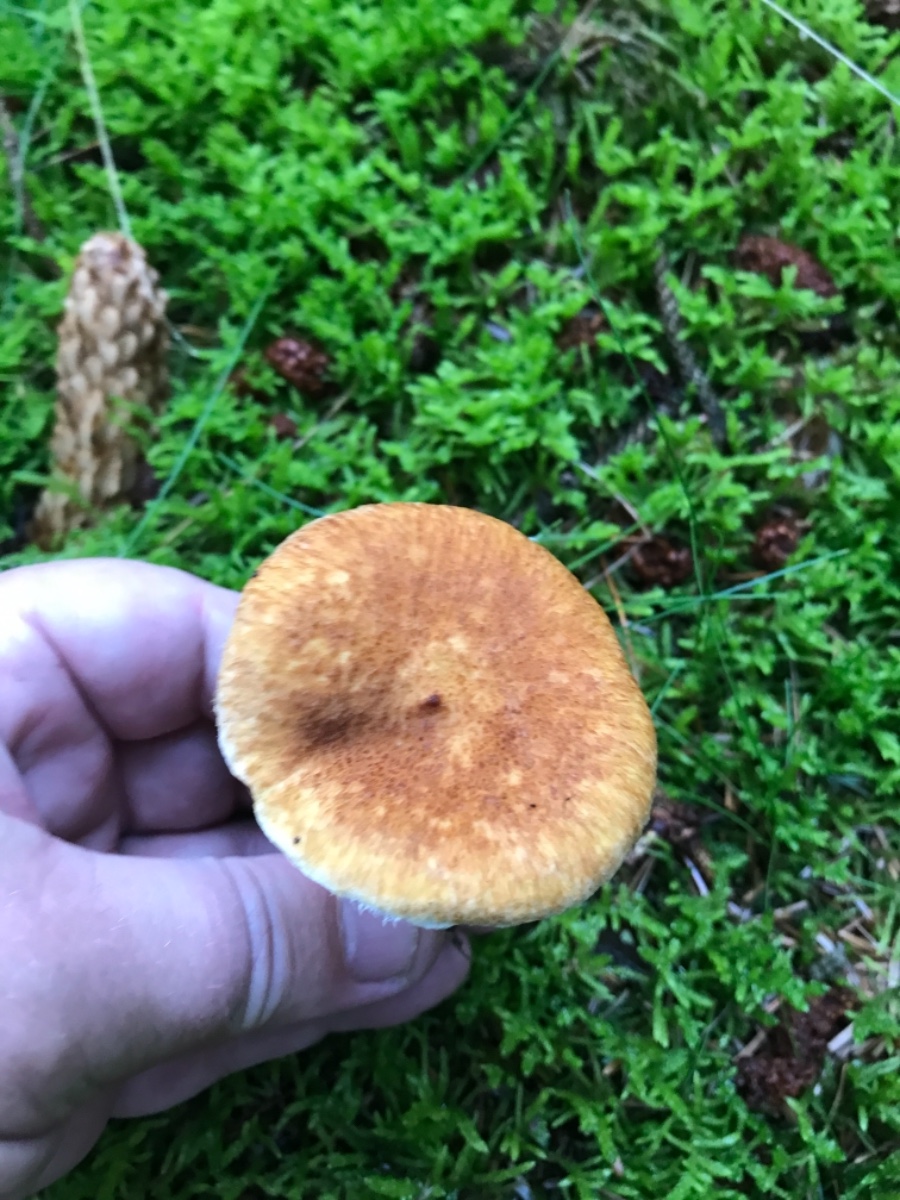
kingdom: Fungi
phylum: Basidiomycota
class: Agaricomycetes
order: Boletales
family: Suillaceae
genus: Suillus
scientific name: Suillus cavipes
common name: hulstokket slimrørhat
